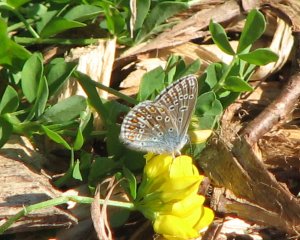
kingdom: Animalia
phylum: Arthropoda
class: Insecta
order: Lepidoptera
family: Lycaenidae
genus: Polyommatus
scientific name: Polyommatus icarus
